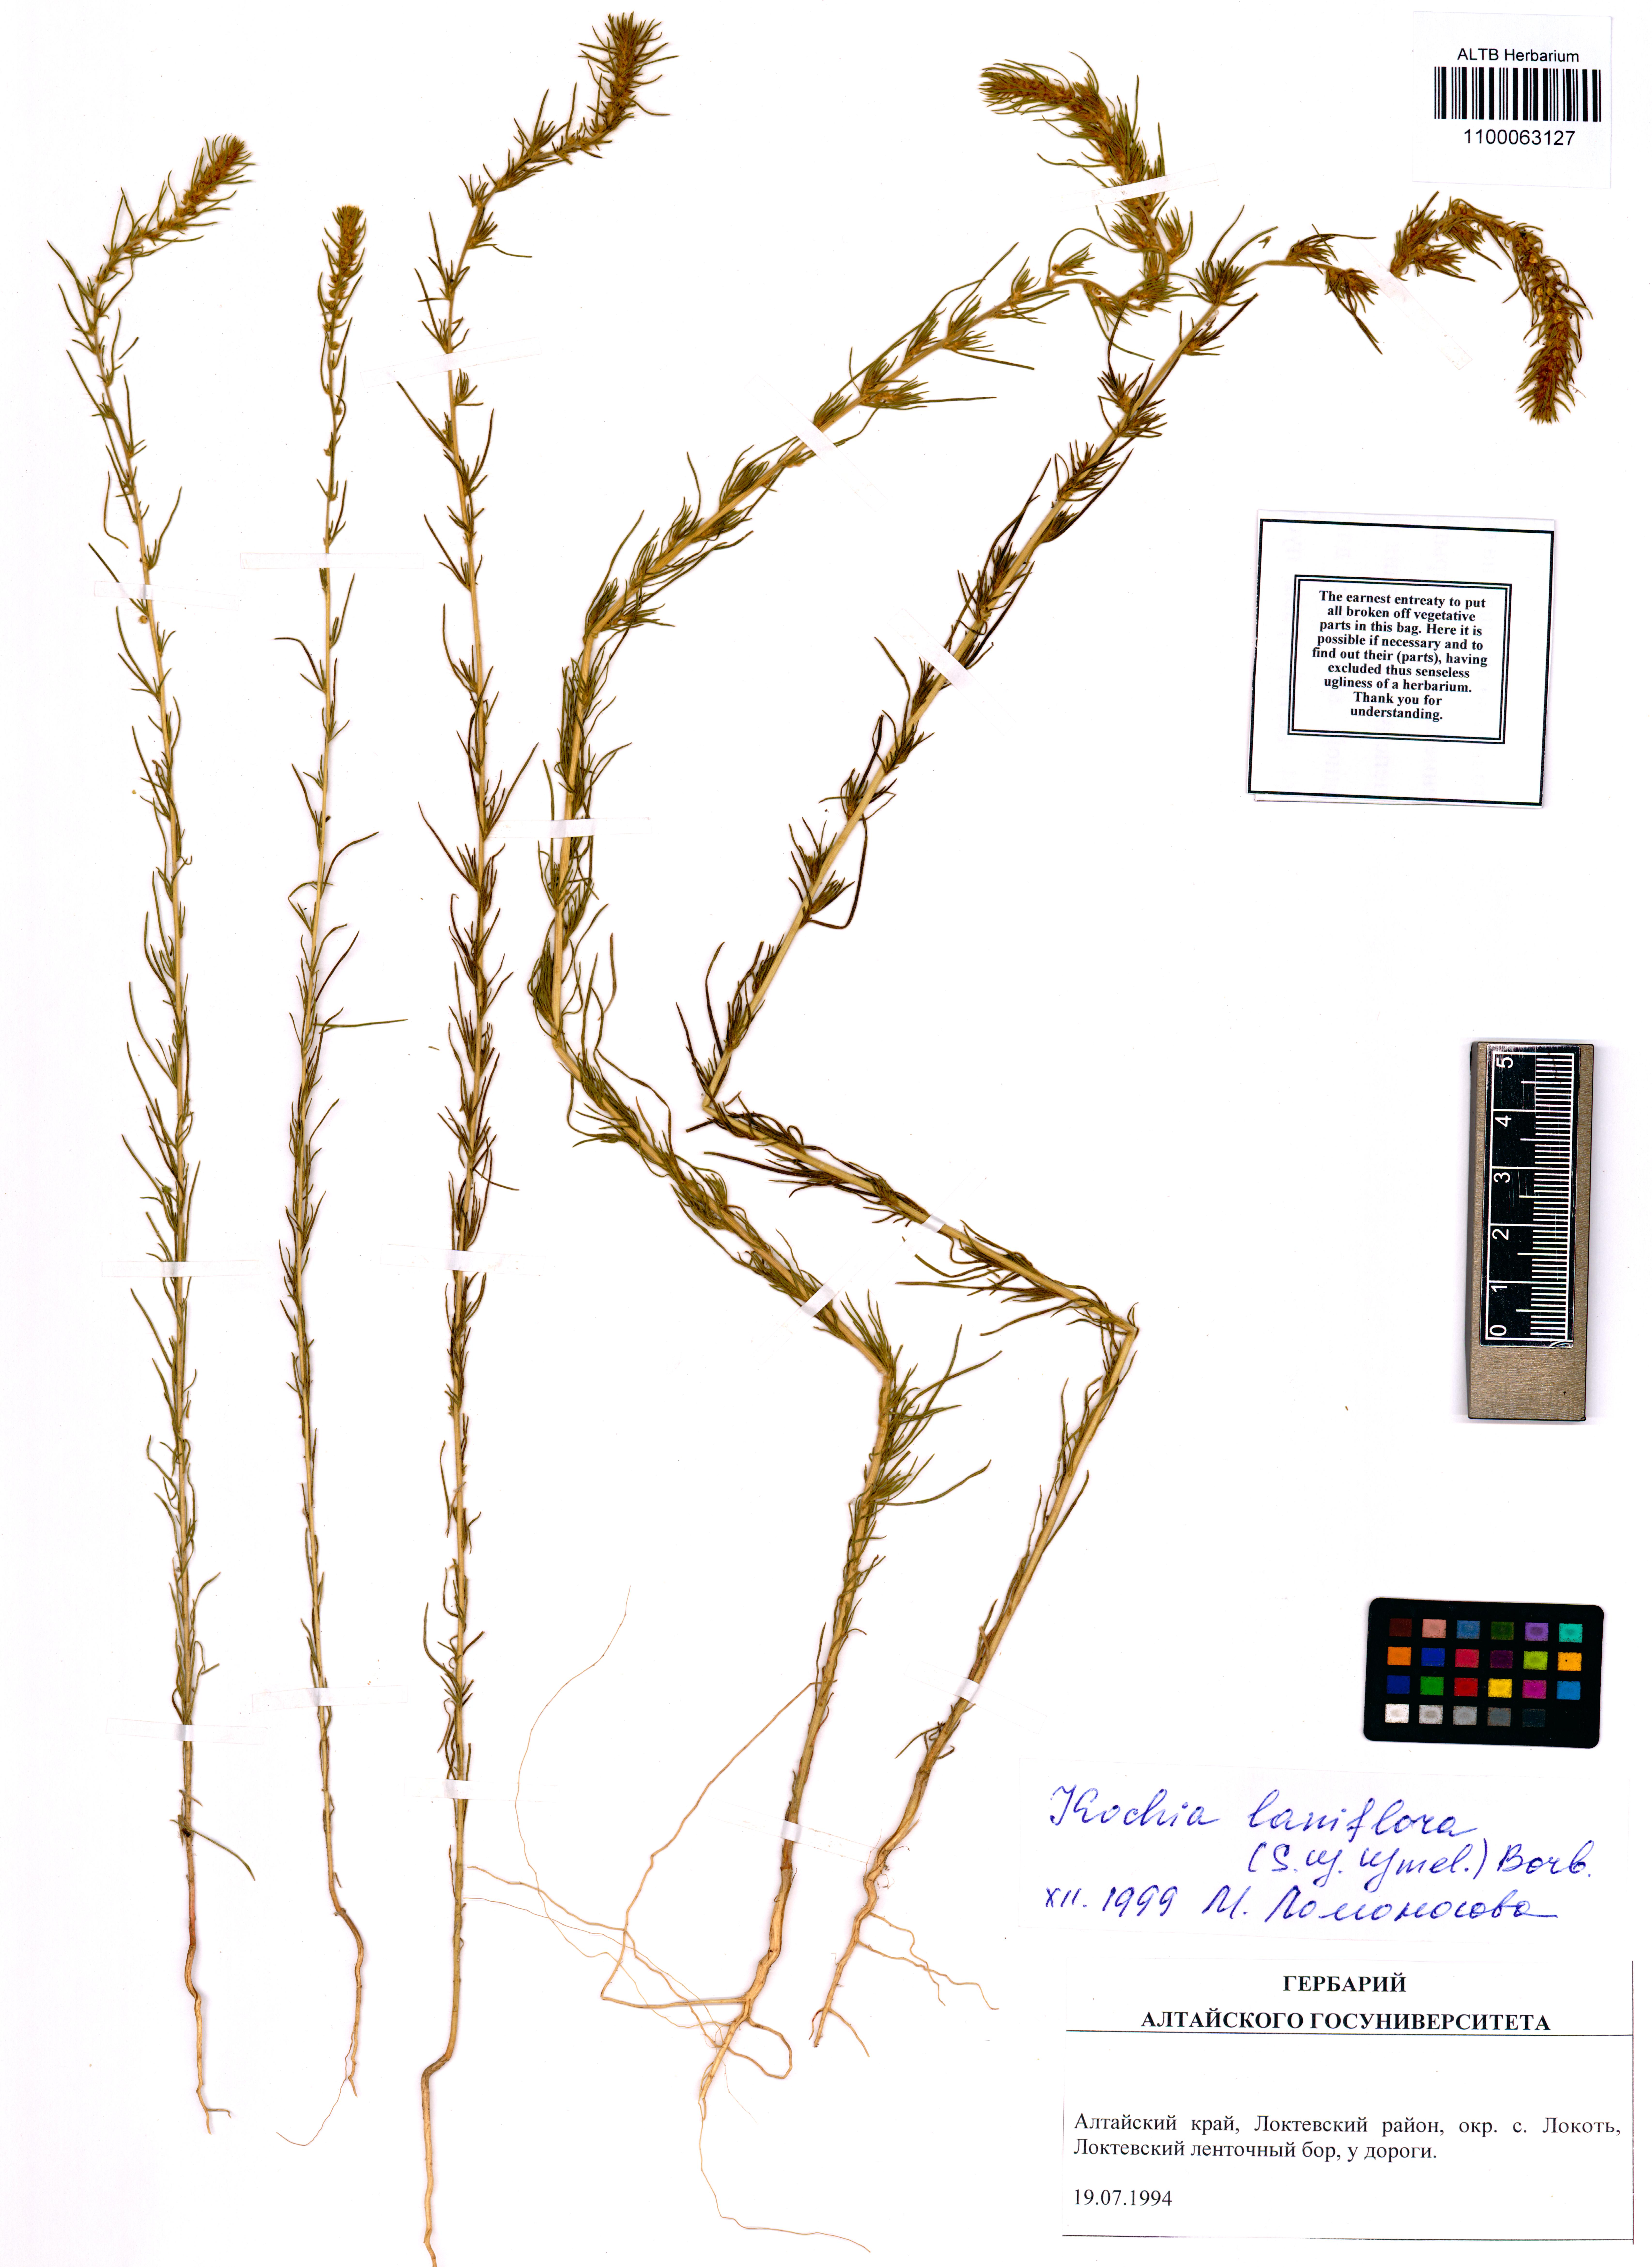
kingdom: Plantae
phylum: Tracheophyta
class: Magnoliopsida
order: Caryophyllales
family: Amaranthaceae
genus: Bassia
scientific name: Bassia laniflora
